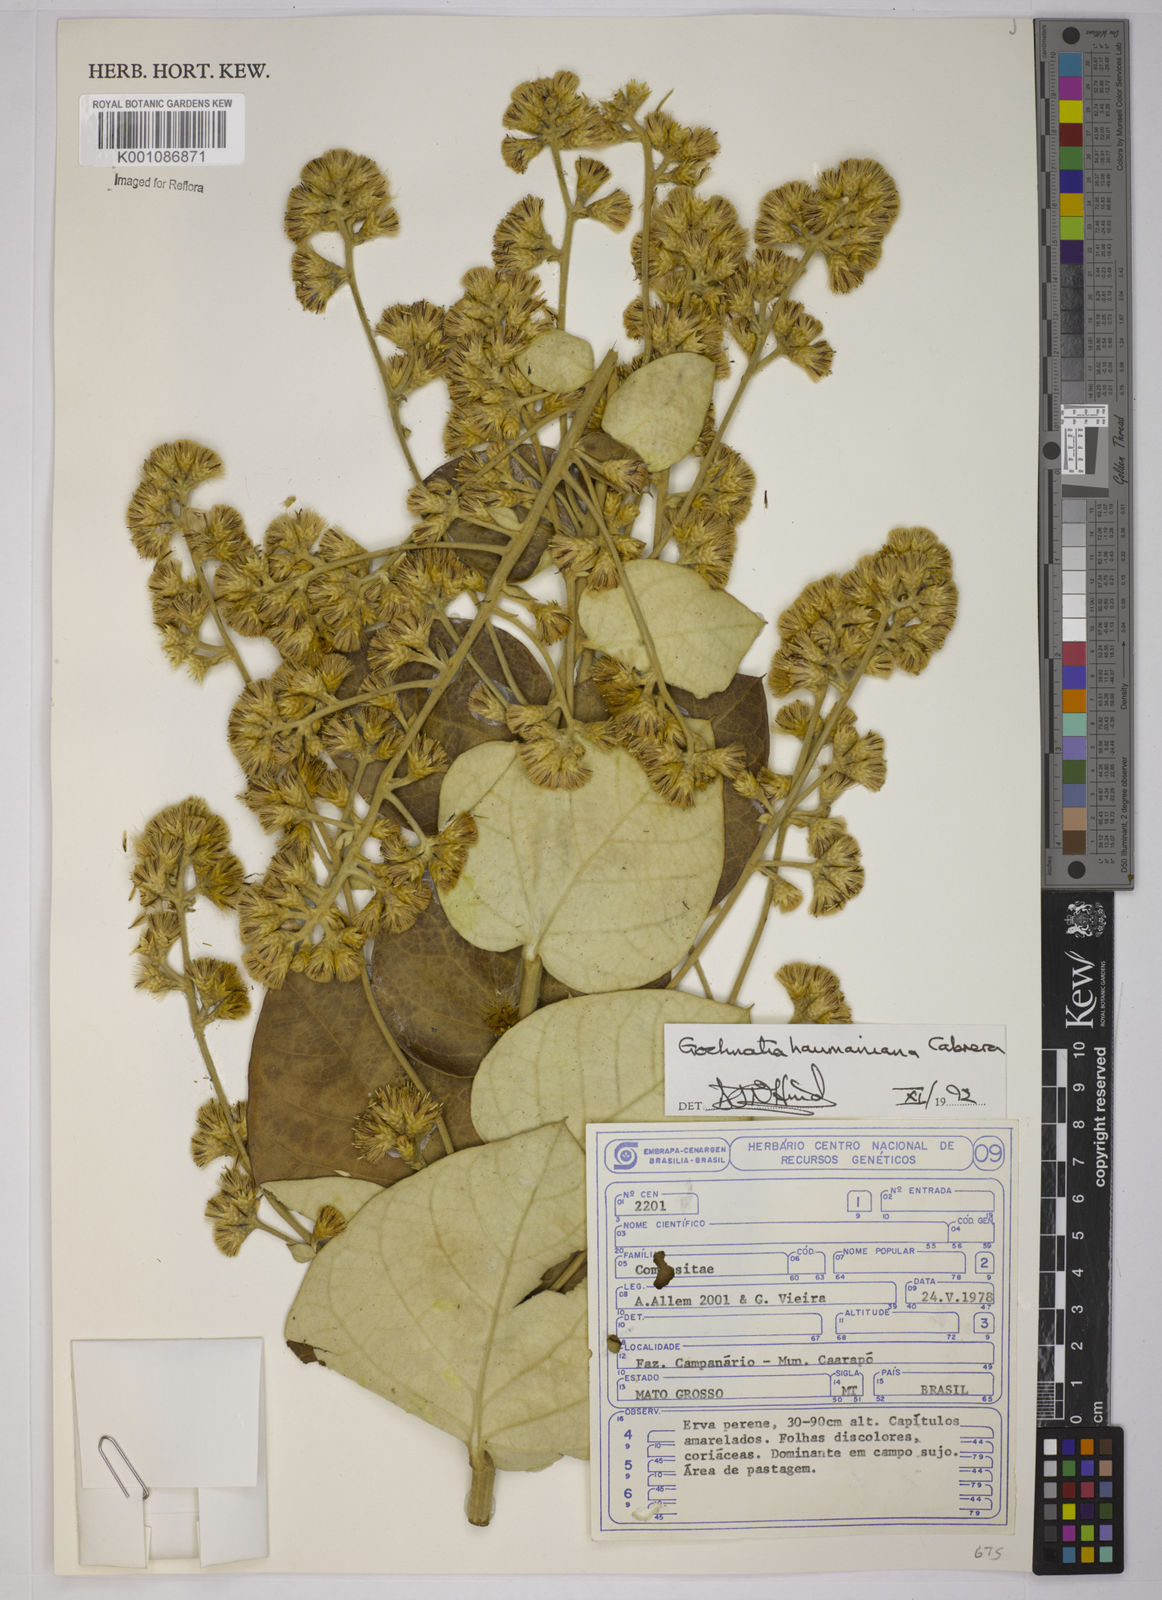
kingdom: Plantae
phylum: Tracheophyta
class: Magnoliopsida
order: Asterales
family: Asteraceae
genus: Moquiniastrum
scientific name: Moquiniastrum haumanianum
